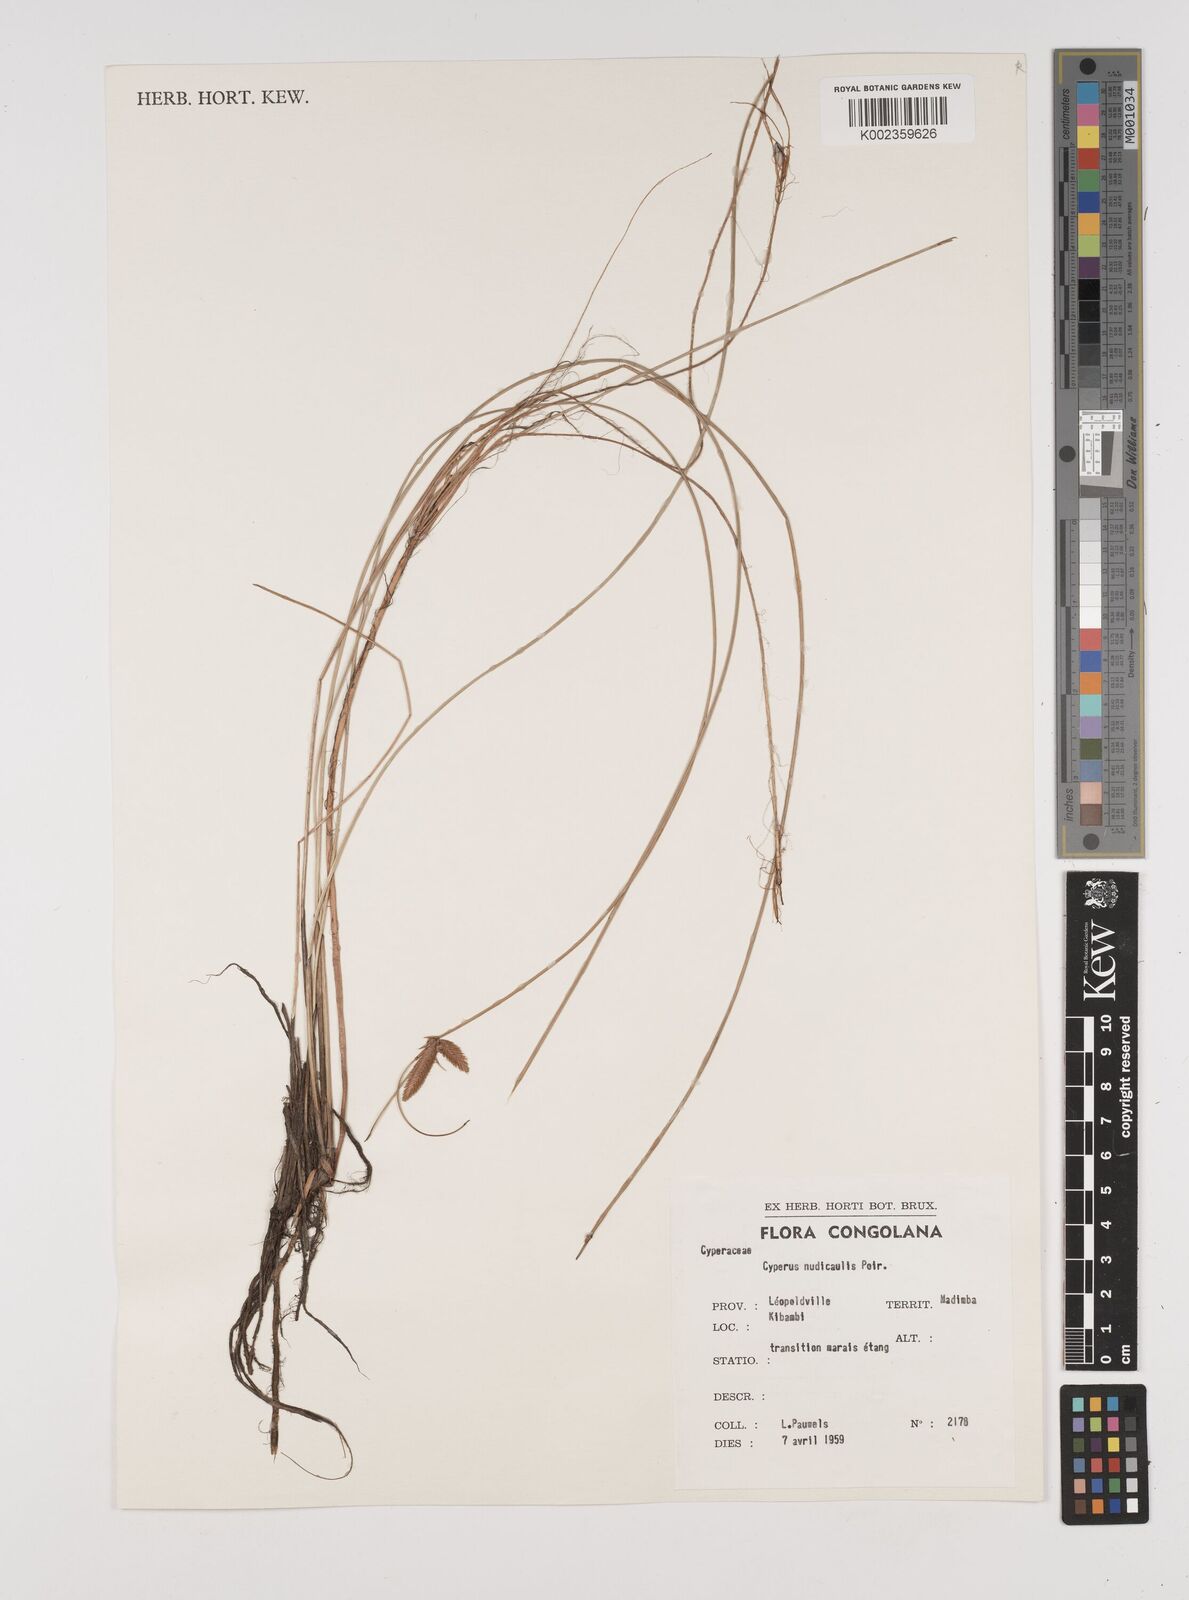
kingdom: Plantae
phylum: Tracheophyta
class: Liliopsida
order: Poales
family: Cyperaceae
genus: Cyperus
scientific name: Cyperus pectinatus
